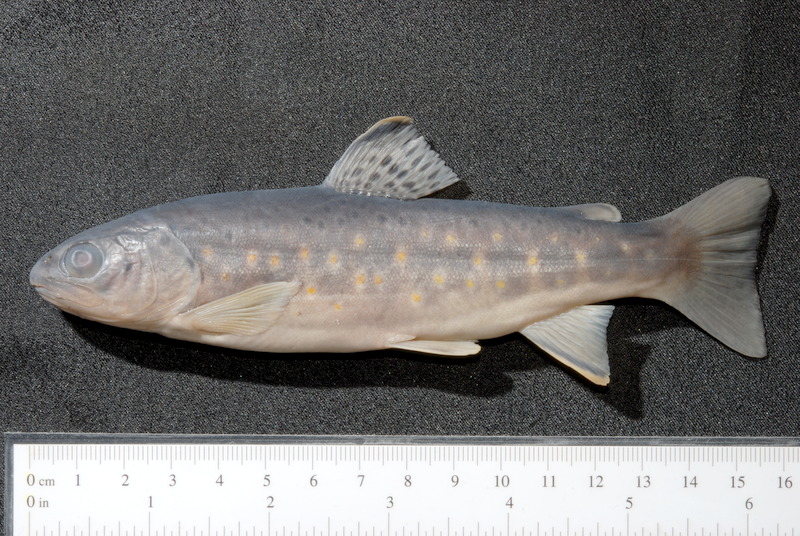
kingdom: Animalia
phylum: Chordata
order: Salmoniformes
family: Salmonidae
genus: Salmo
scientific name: Salmo trutta
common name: Brown trout
